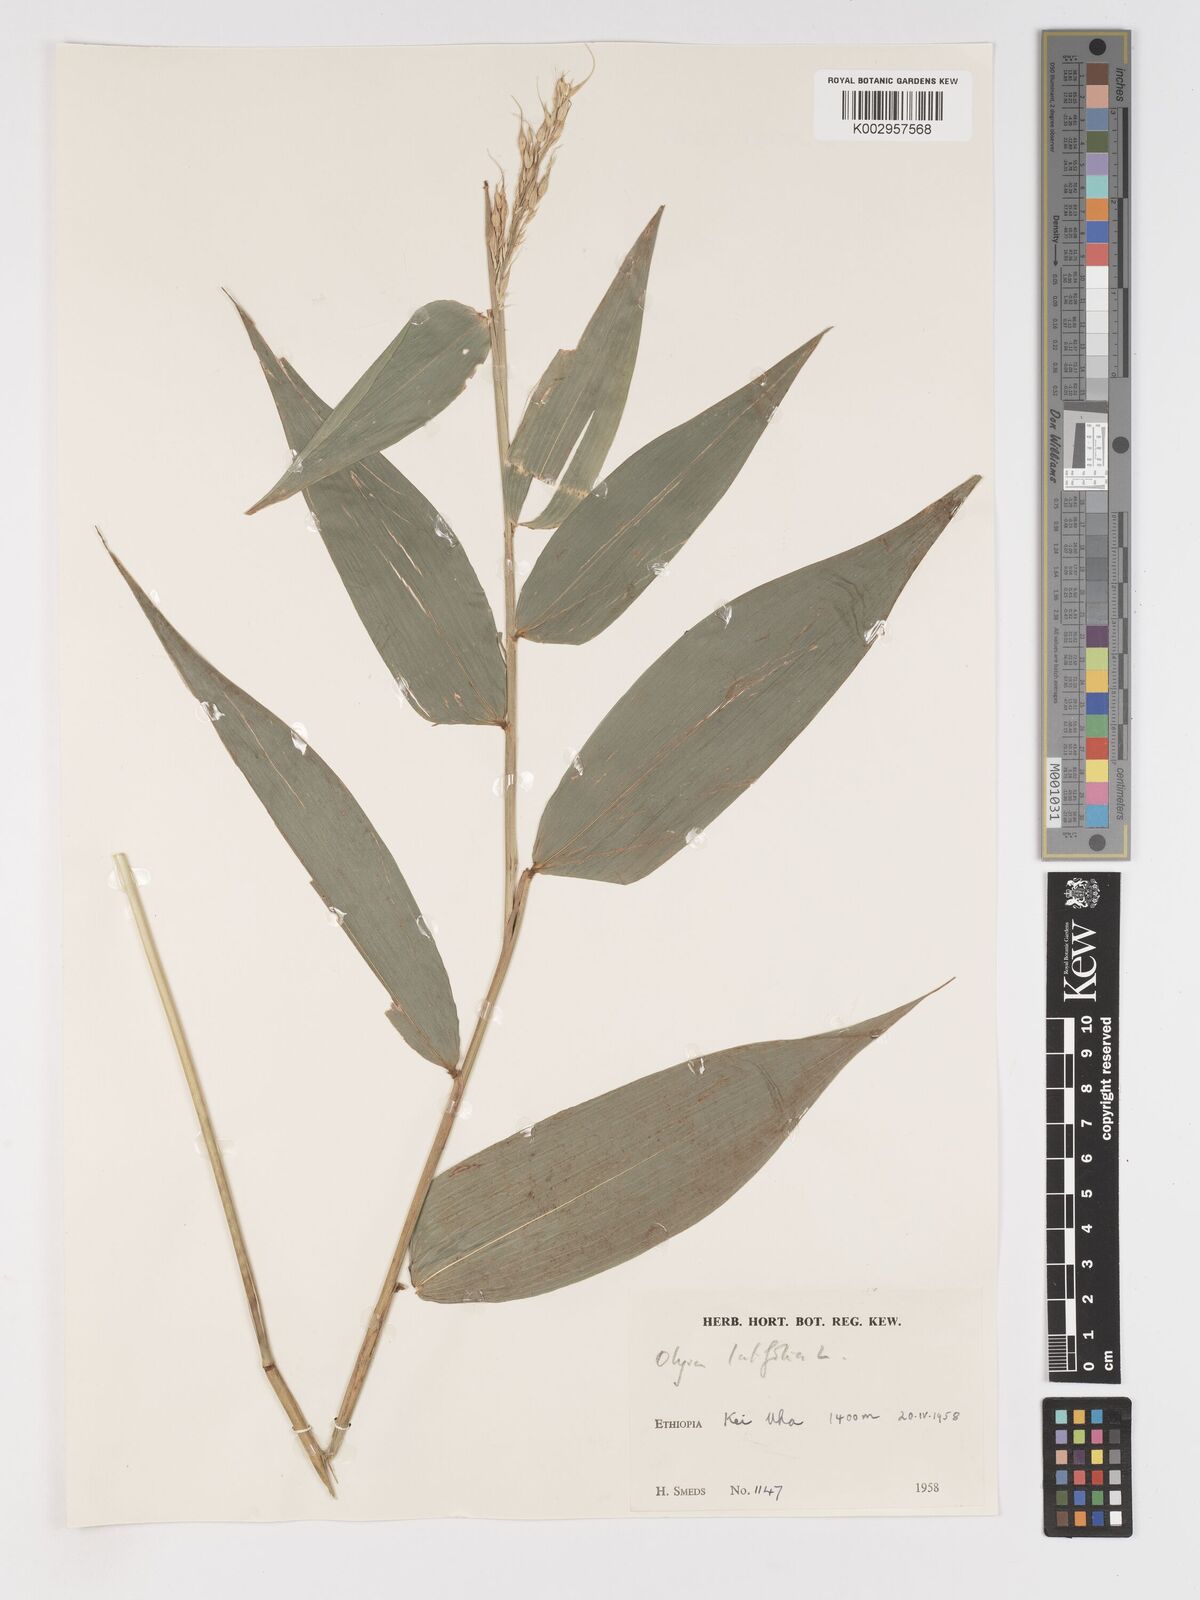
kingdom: Plantae
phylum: Tracheophyta
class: Liliopsida
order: Poales
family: Poaceae
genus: Olyra
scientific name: Olyra latifolia
